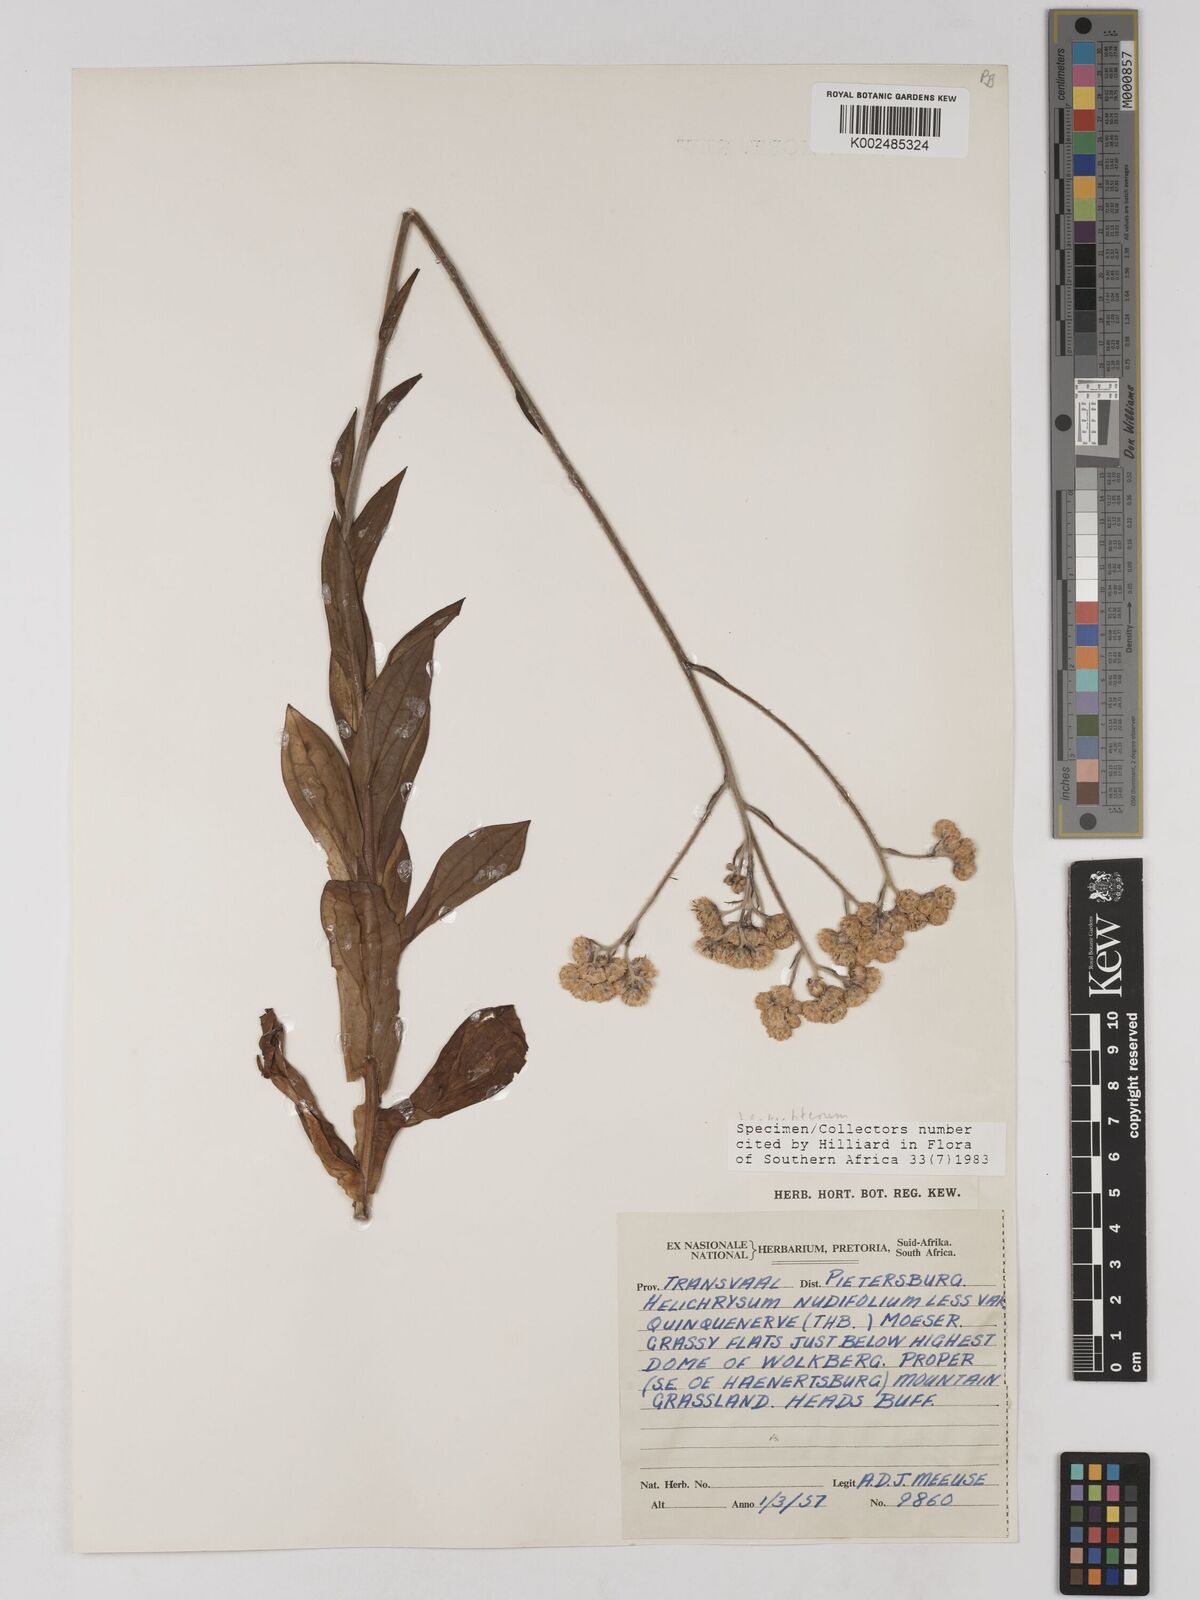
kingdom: Plantae
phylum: Tracheophyta
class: Magnoliopsida
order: Asterales
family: Asteraceae
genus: Helichrysum
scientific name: Helichrysum platypterum
